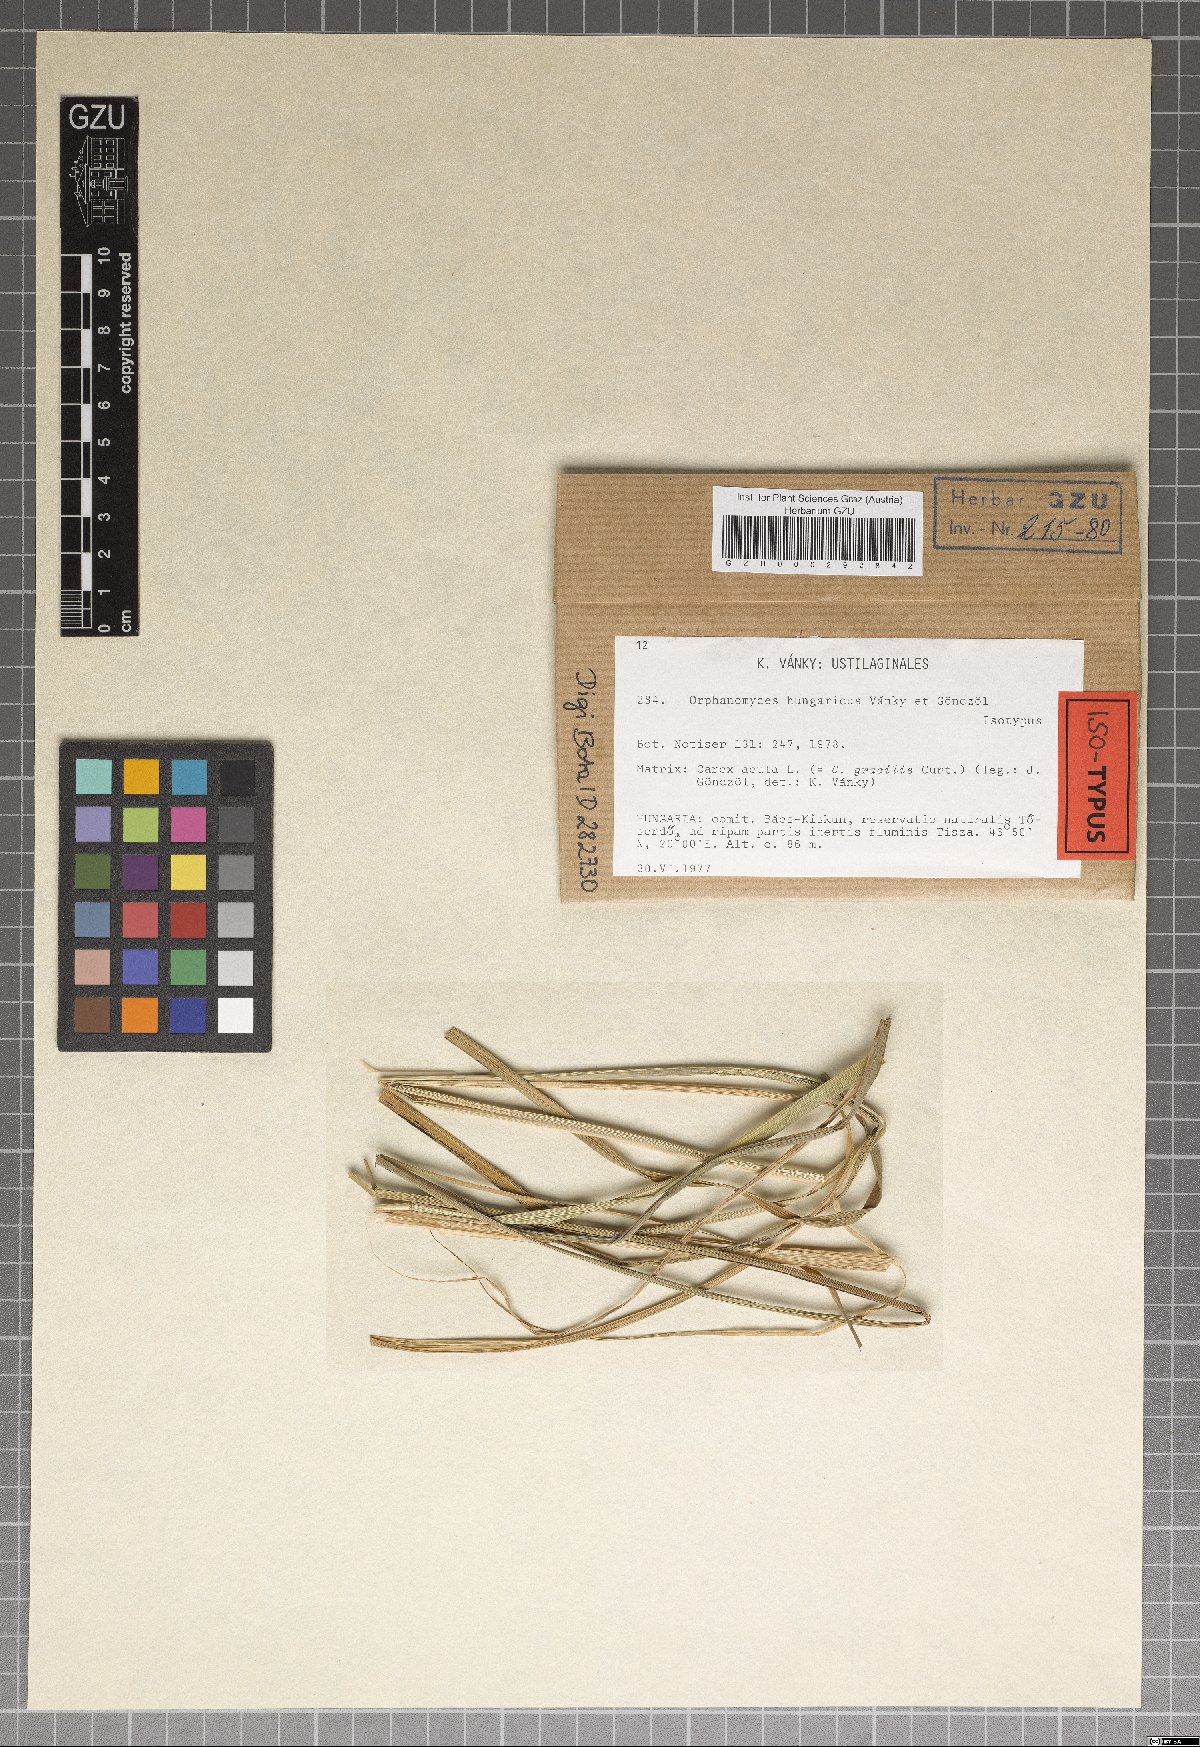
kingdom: Fungi
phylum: Basidiomycota
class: Ustilaginomycetes
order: Ustilaginales
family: Anthracoideaceae
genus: Orphanomyces
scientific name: Orphanomyces hungaricus
